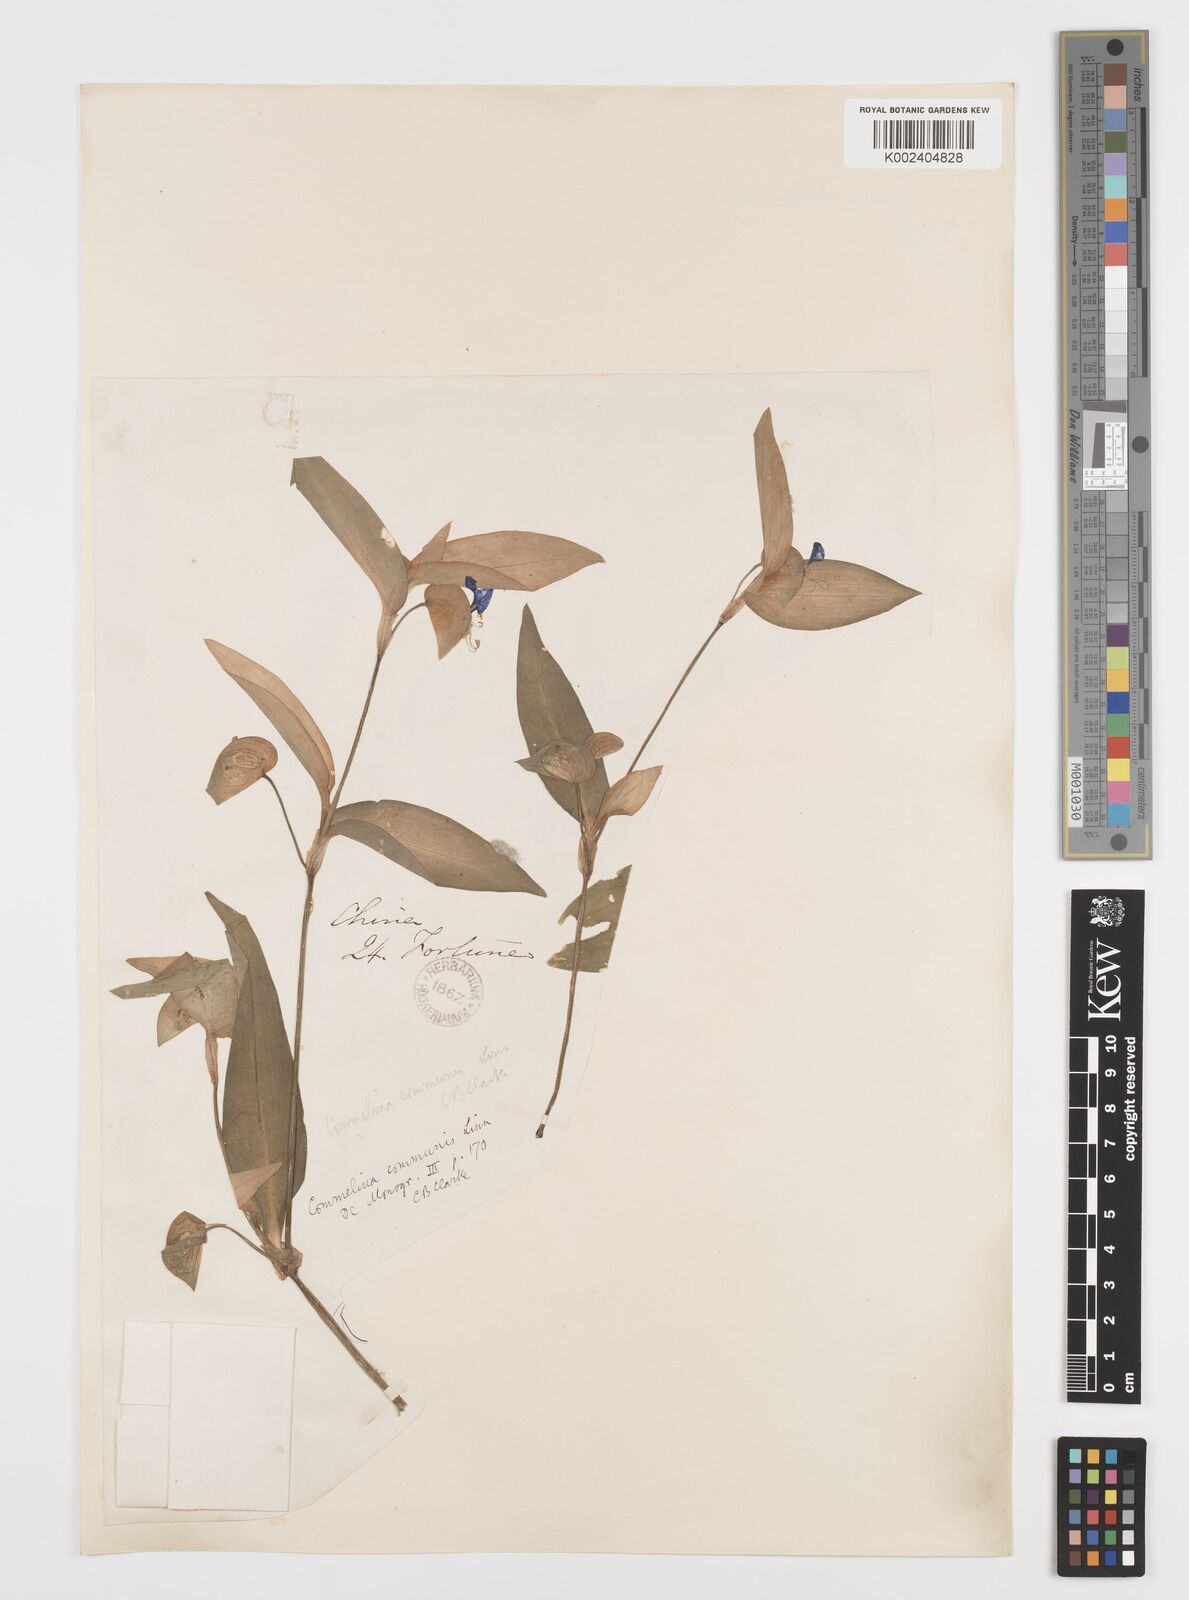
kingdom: Plantae
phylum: Tracheophyta
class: Liliopsida
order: Commelinales
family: Commelinaceae
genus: Commelina
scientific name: Commelina communis
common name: Asiatic dayflower
